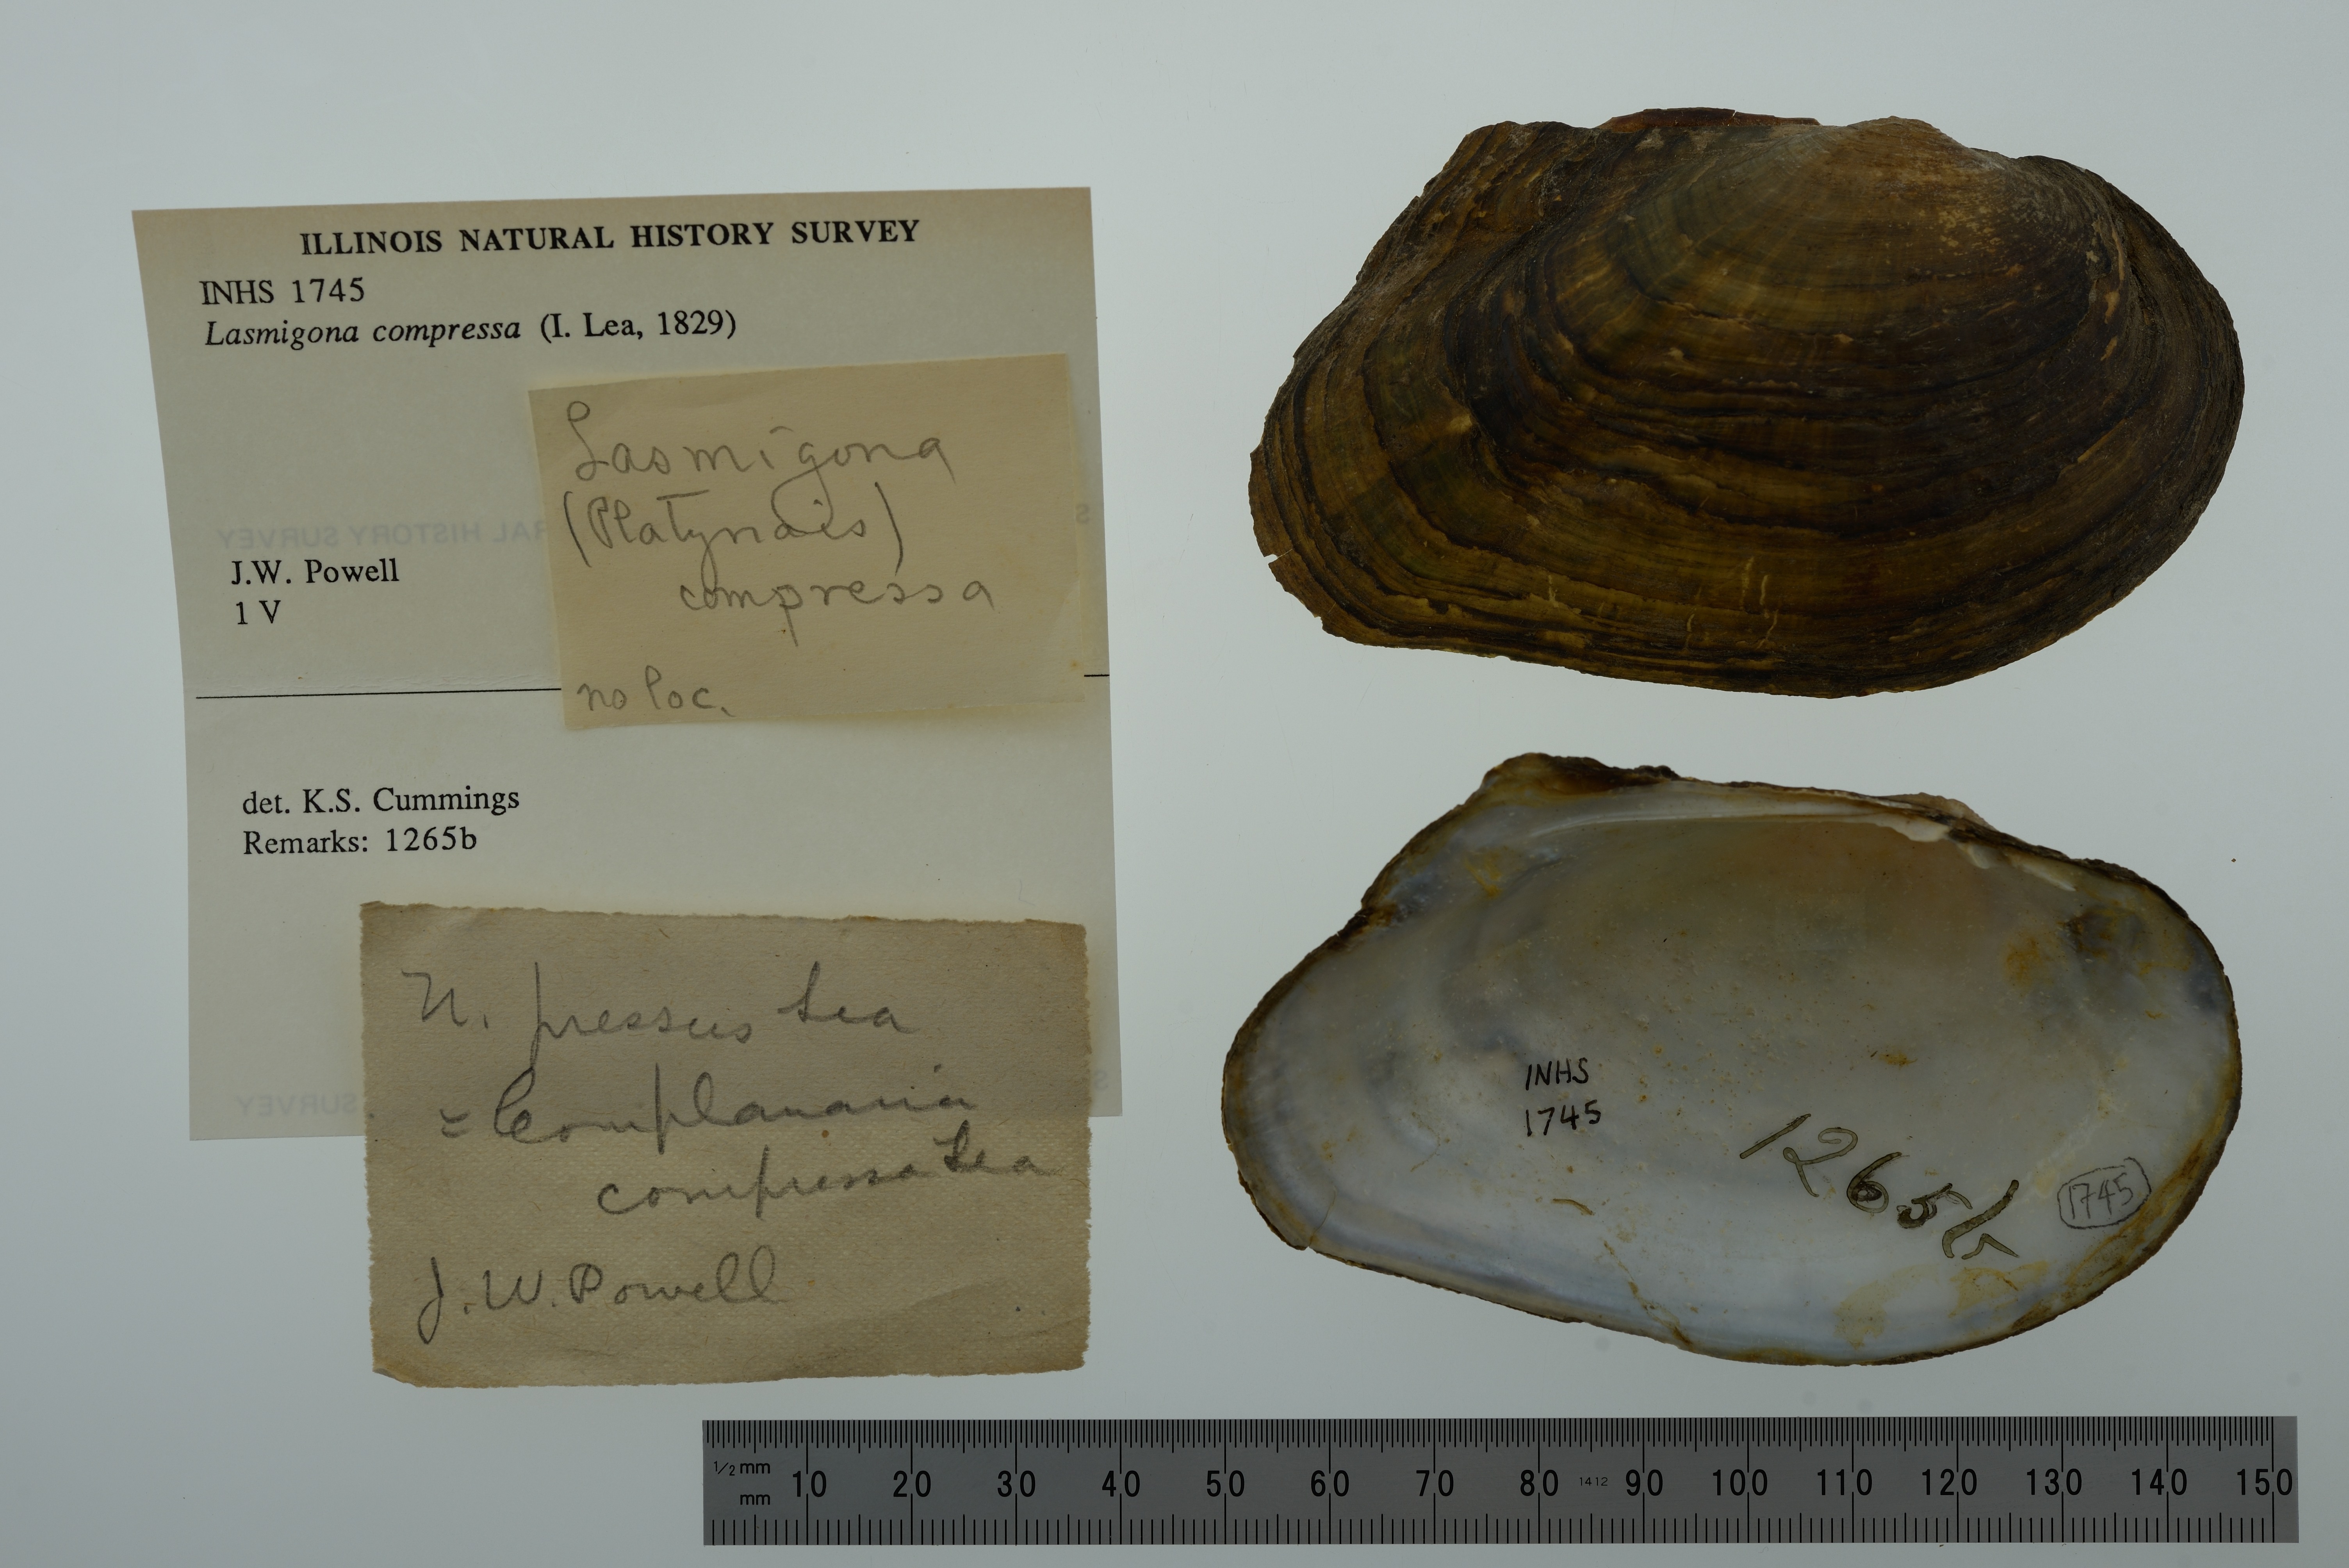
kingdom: Animalia
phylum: Mollusca
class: Bivalvia
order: Unionida
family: Unionidae
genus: Lasmigona
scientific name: Lasmigona compressa
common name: Creek heelsplitter
